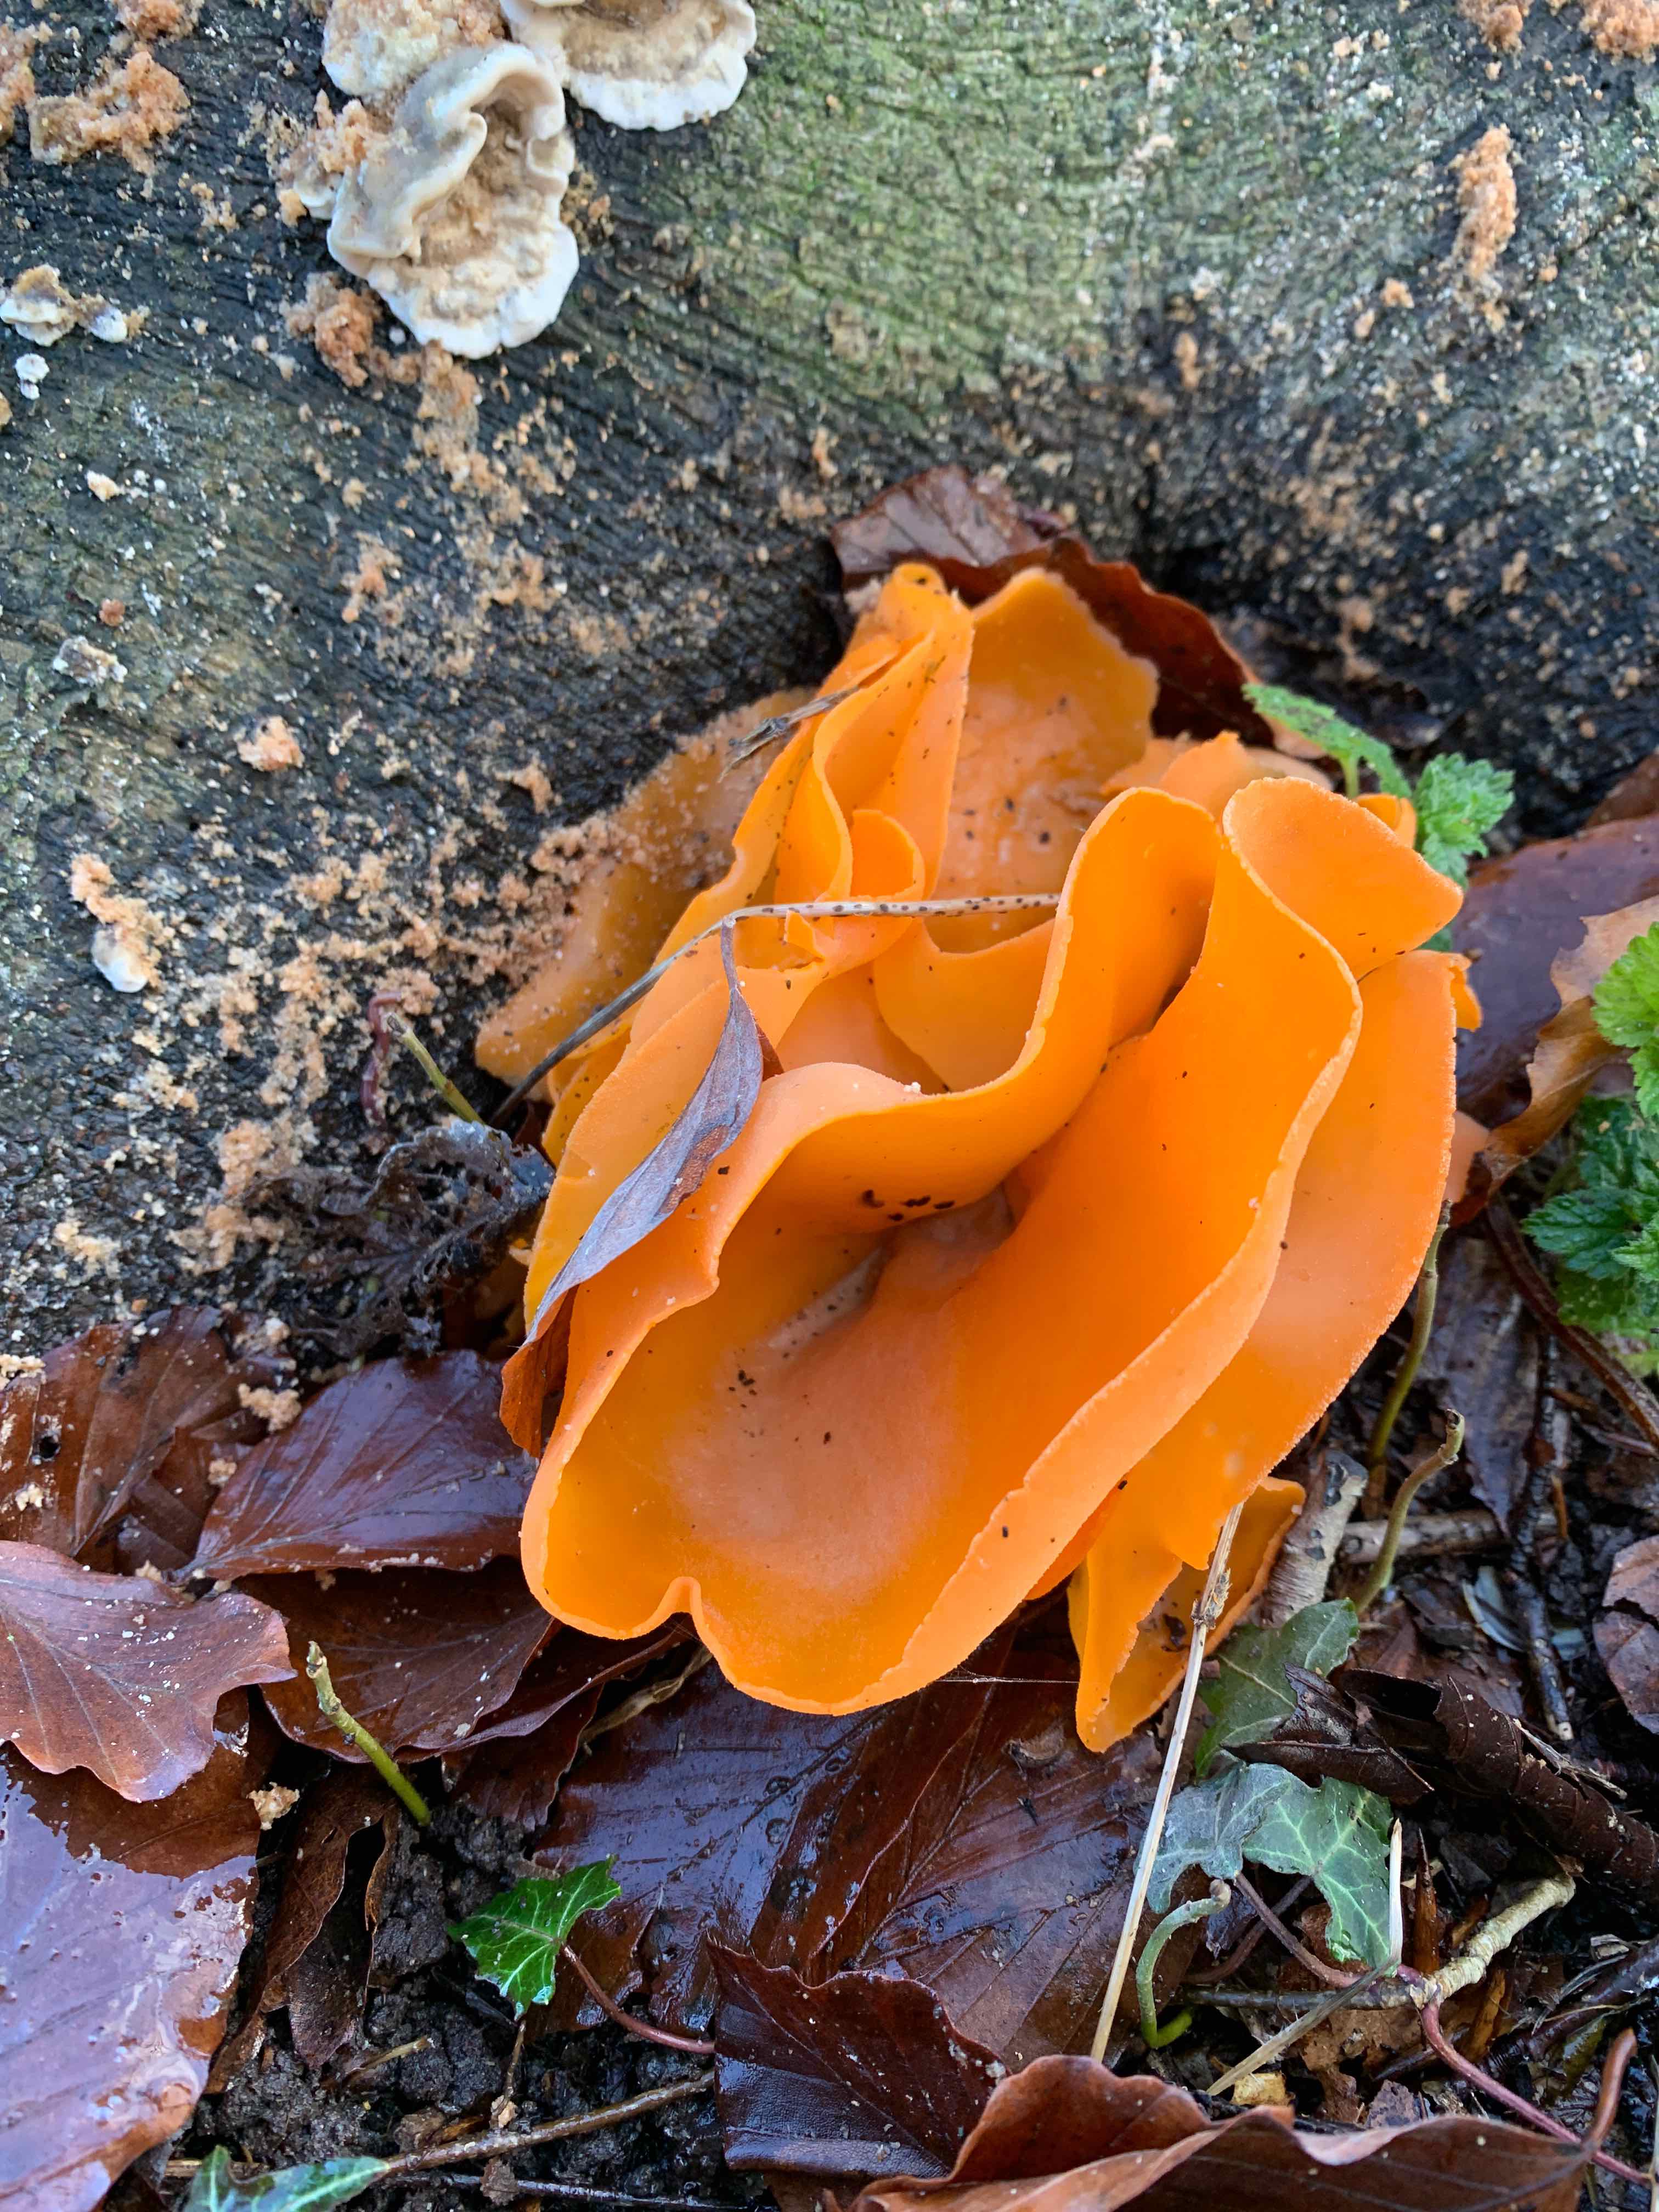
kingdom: Fungi
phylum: Ascomycota
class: Pezizomycetes
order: Pezizales
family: Pyronemataceae
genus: Aleuria
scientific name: Aleuria aurantia
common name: almindelig orangebæger
